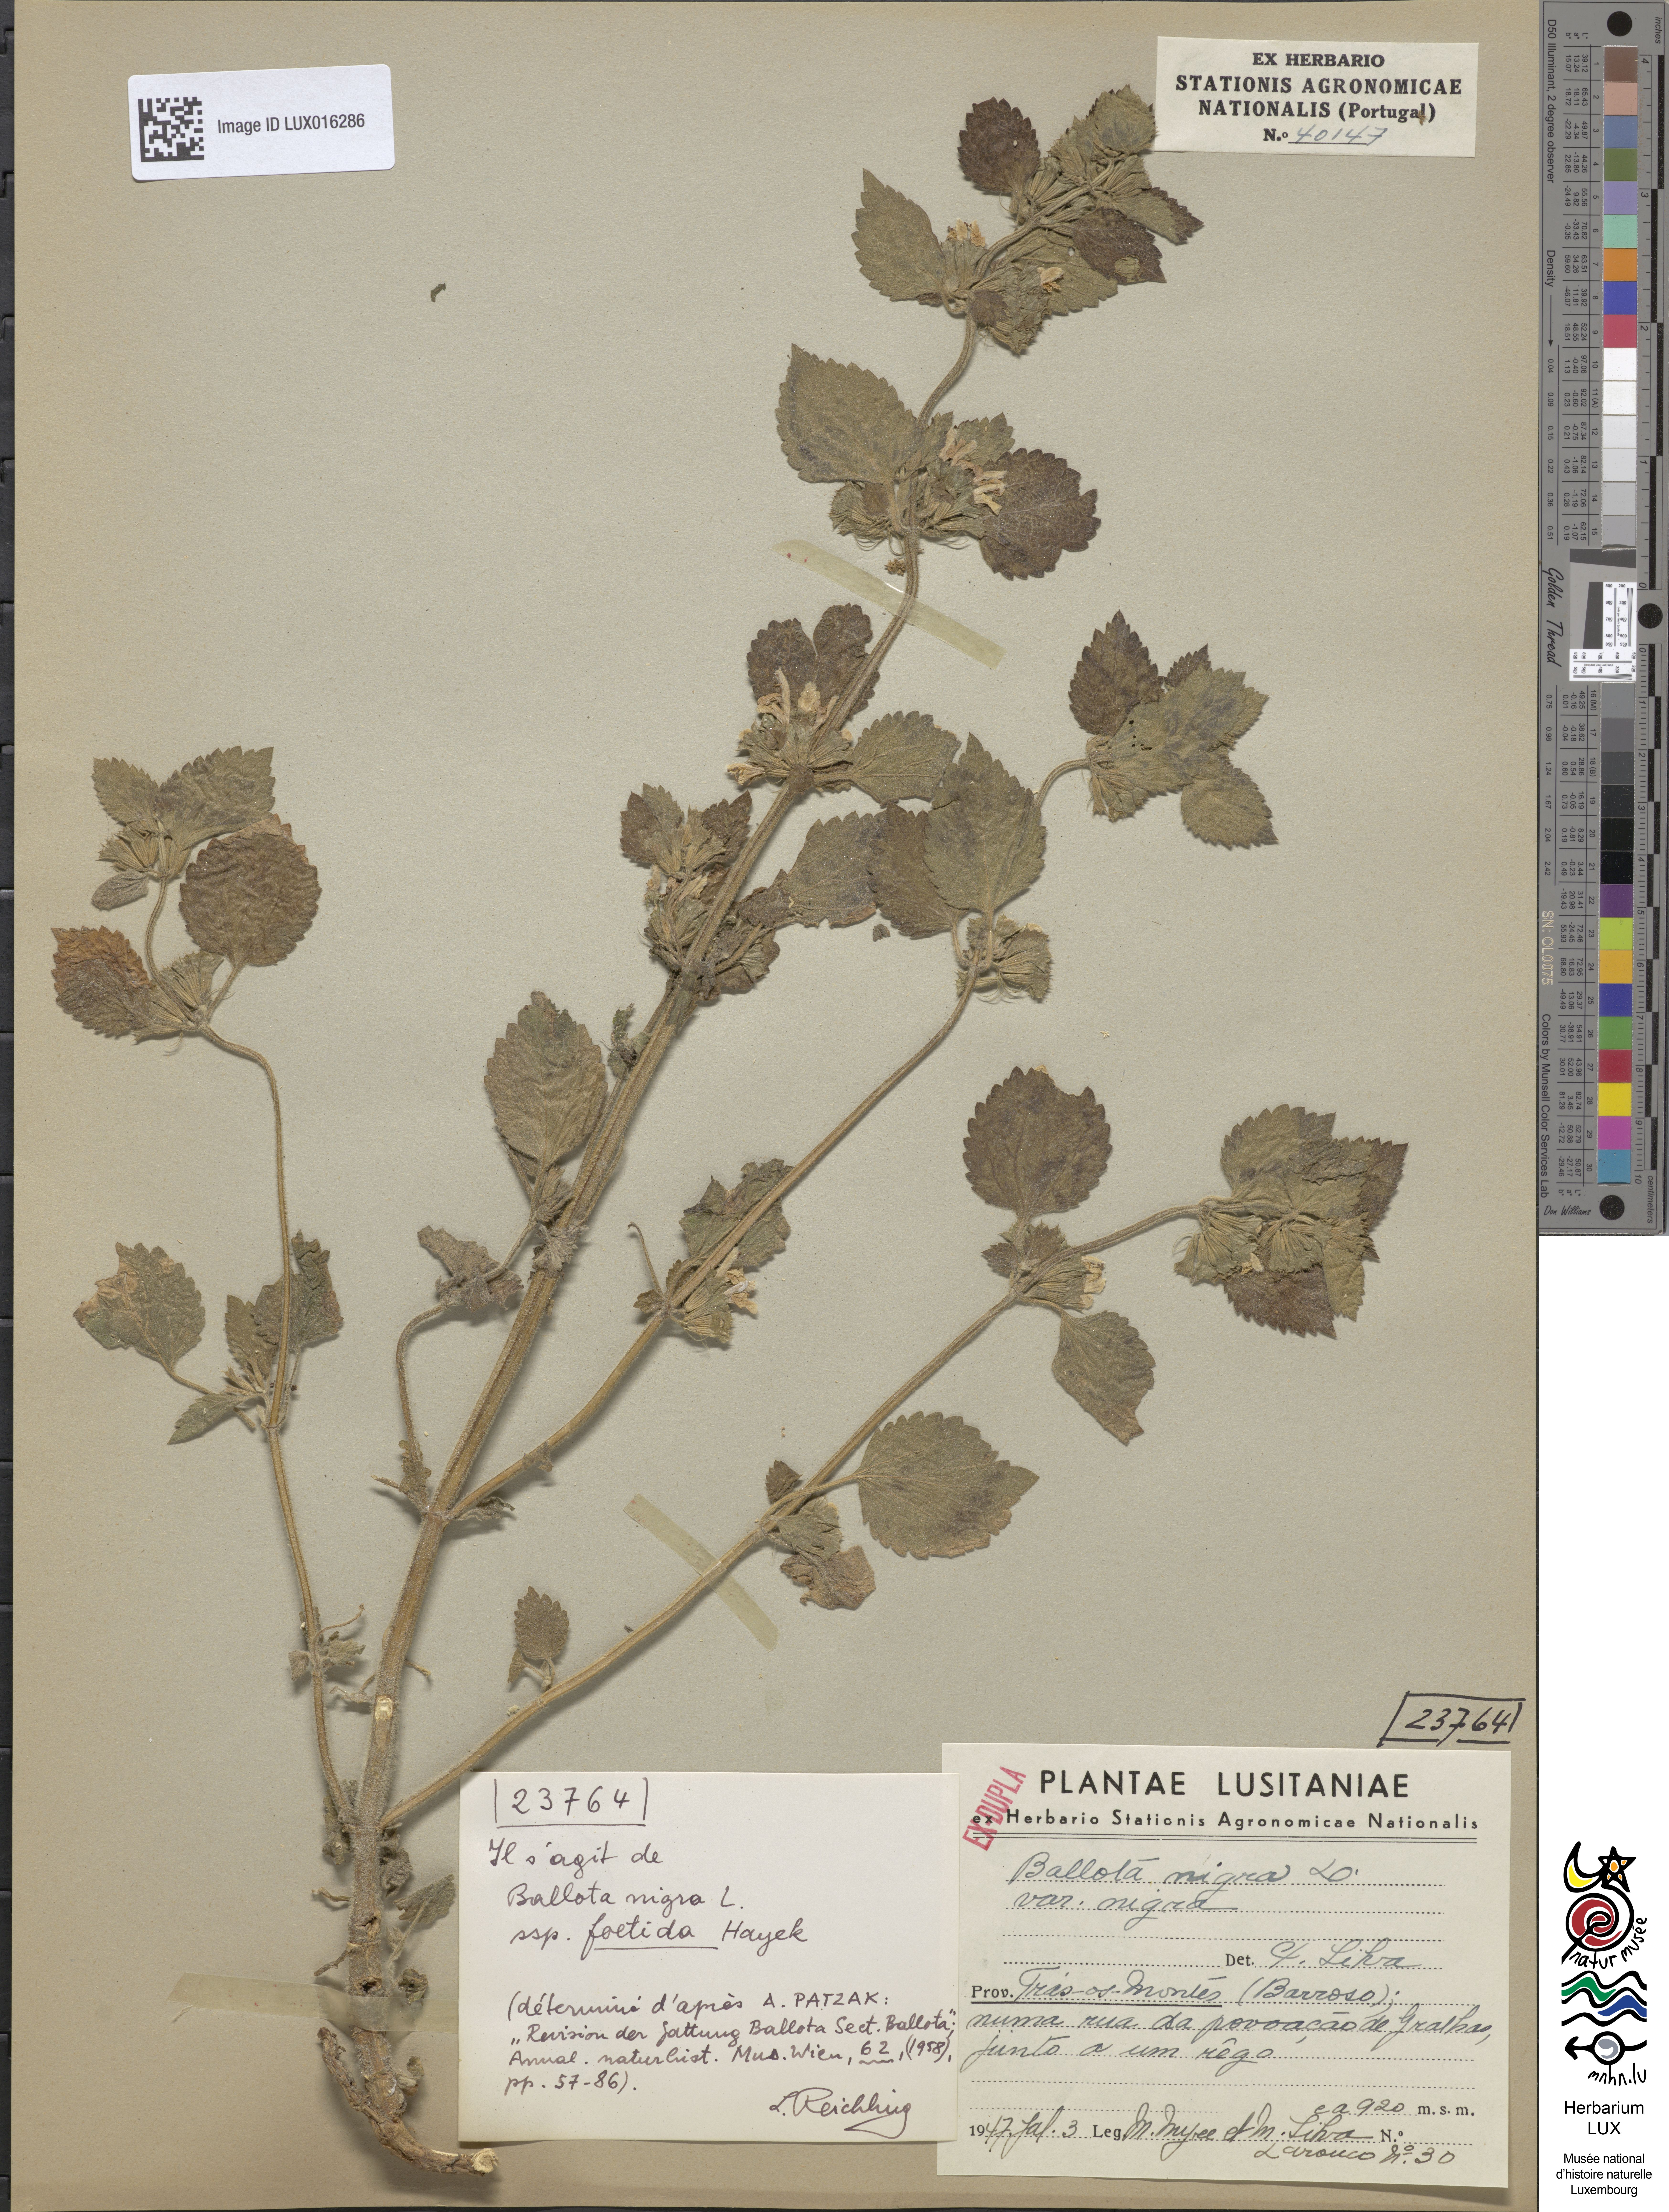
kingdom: Plantae
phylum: Tracheophyta
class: Magnoliopsida
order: Lamiales
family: Lamiaceae
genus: Ballota
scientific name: Ballota nigra
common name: Black horehound
